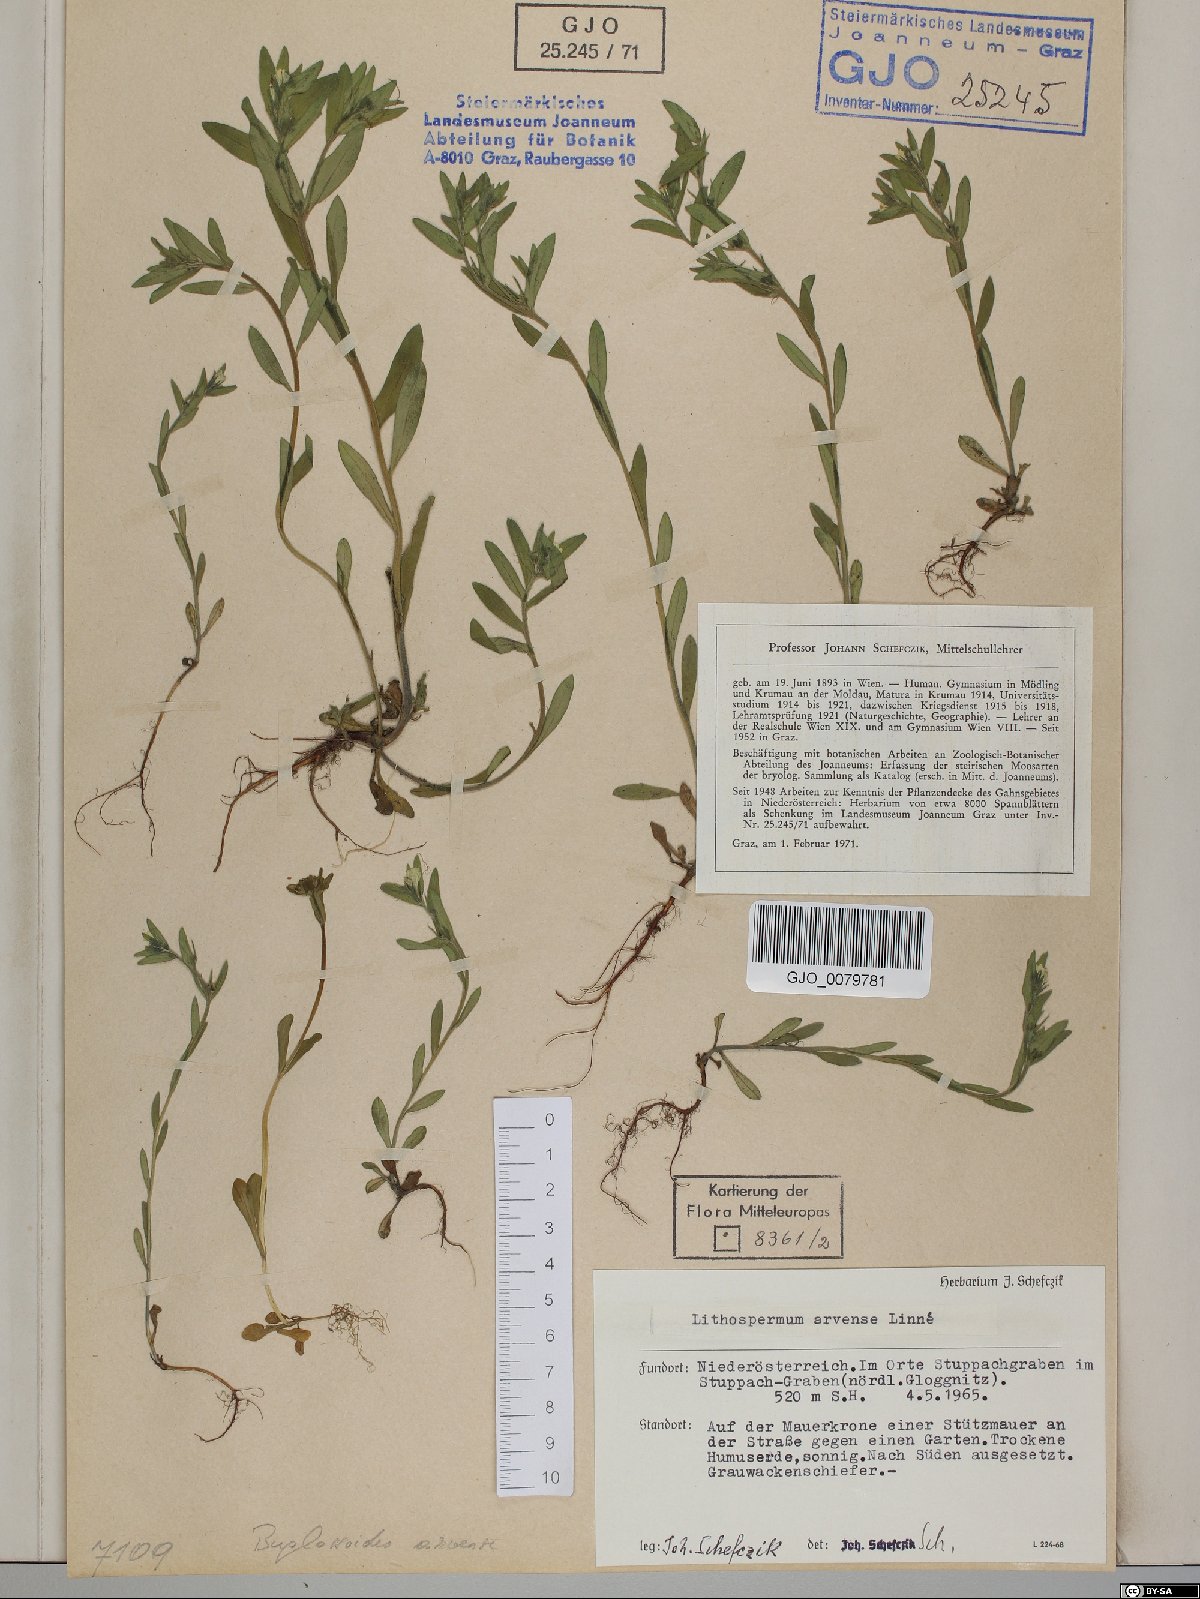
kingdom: Plantae
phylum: Tracheophyta
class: Magnoliopsida
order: Boraginales
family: Boraginaceae
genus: Buglossoides
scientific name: Buglossoides arvensis
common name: Corn gromwell
